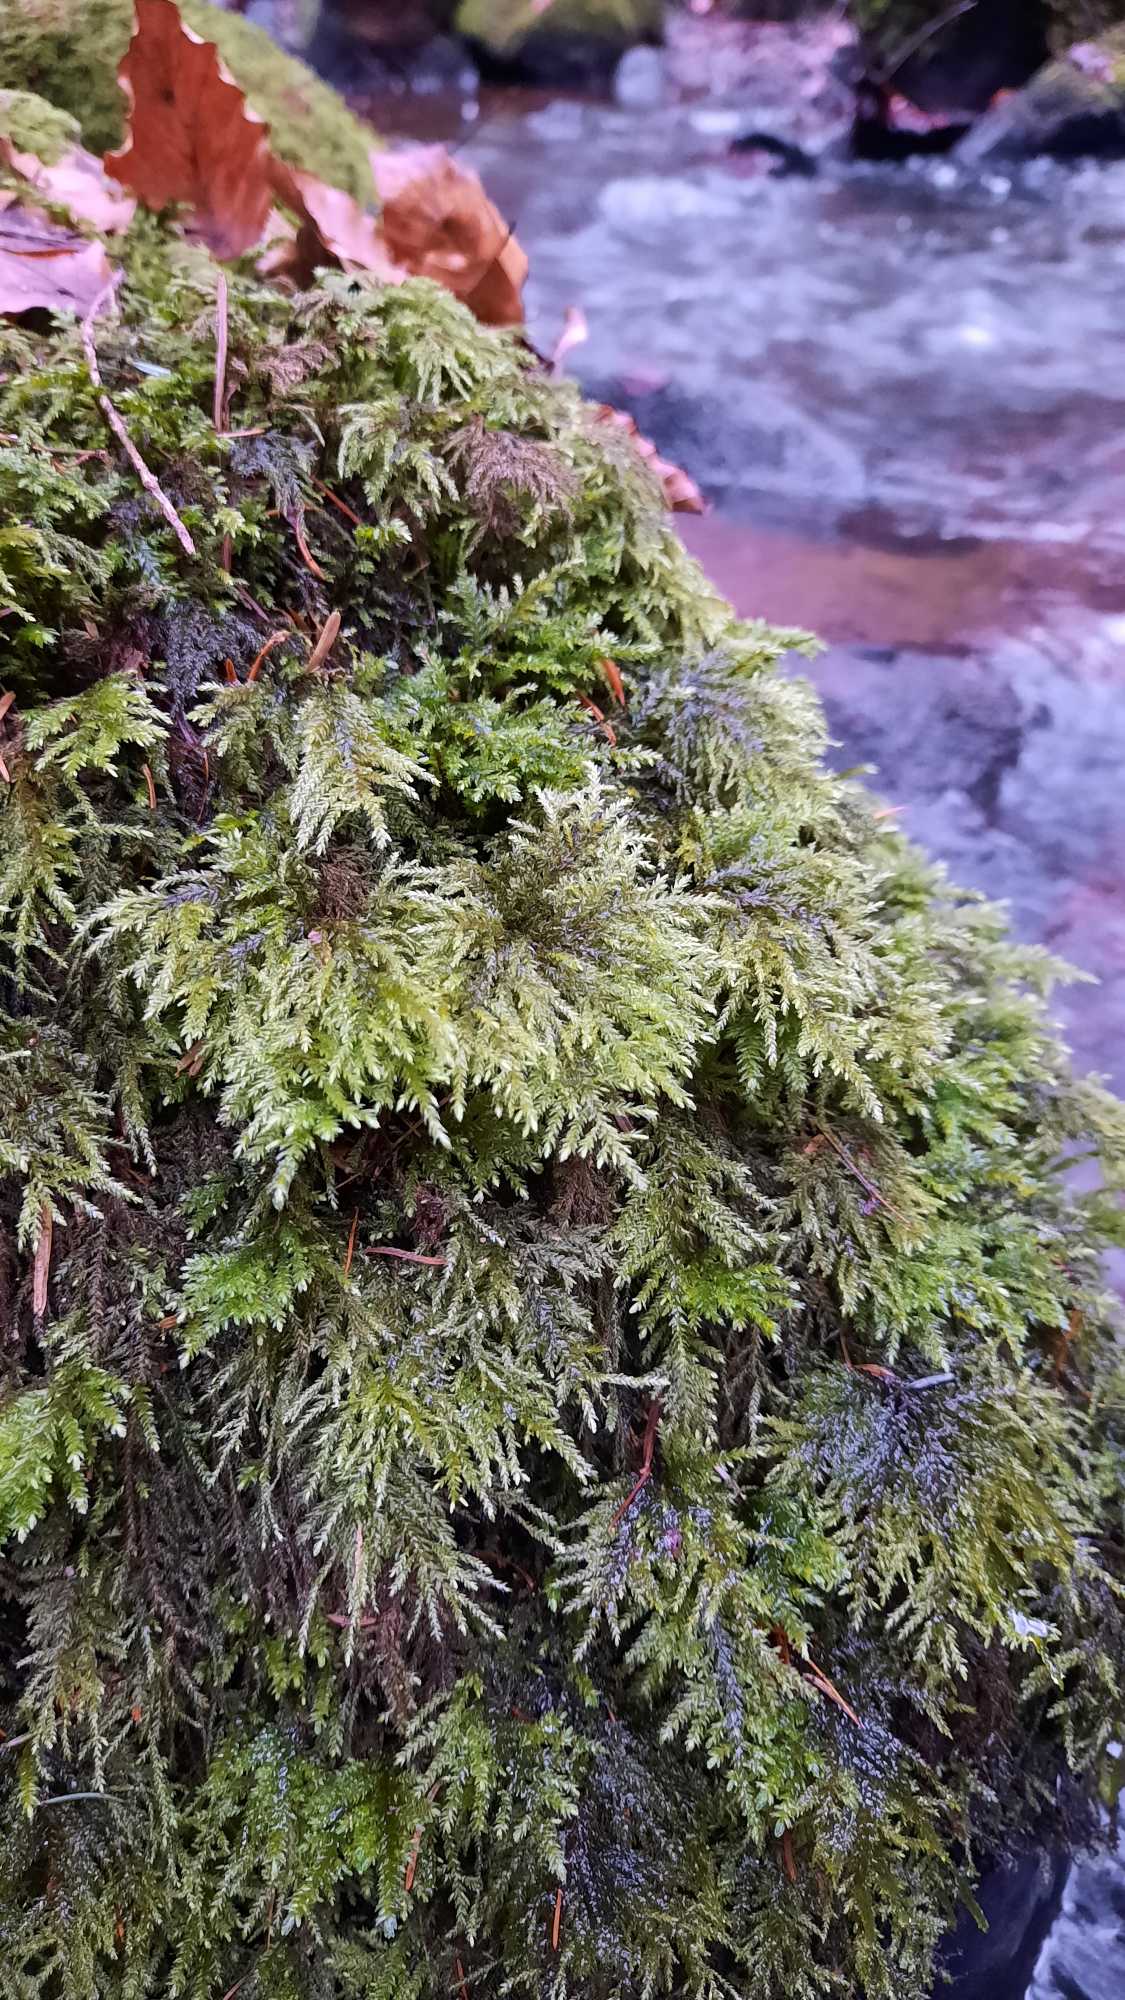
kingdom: Plantae
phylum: Bryophyta
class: Bryopsida
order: Hypnales
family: Neckeraceae
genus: Thamnobryum
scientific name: Thamnobryum alopecurum
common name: Mat bækkost
